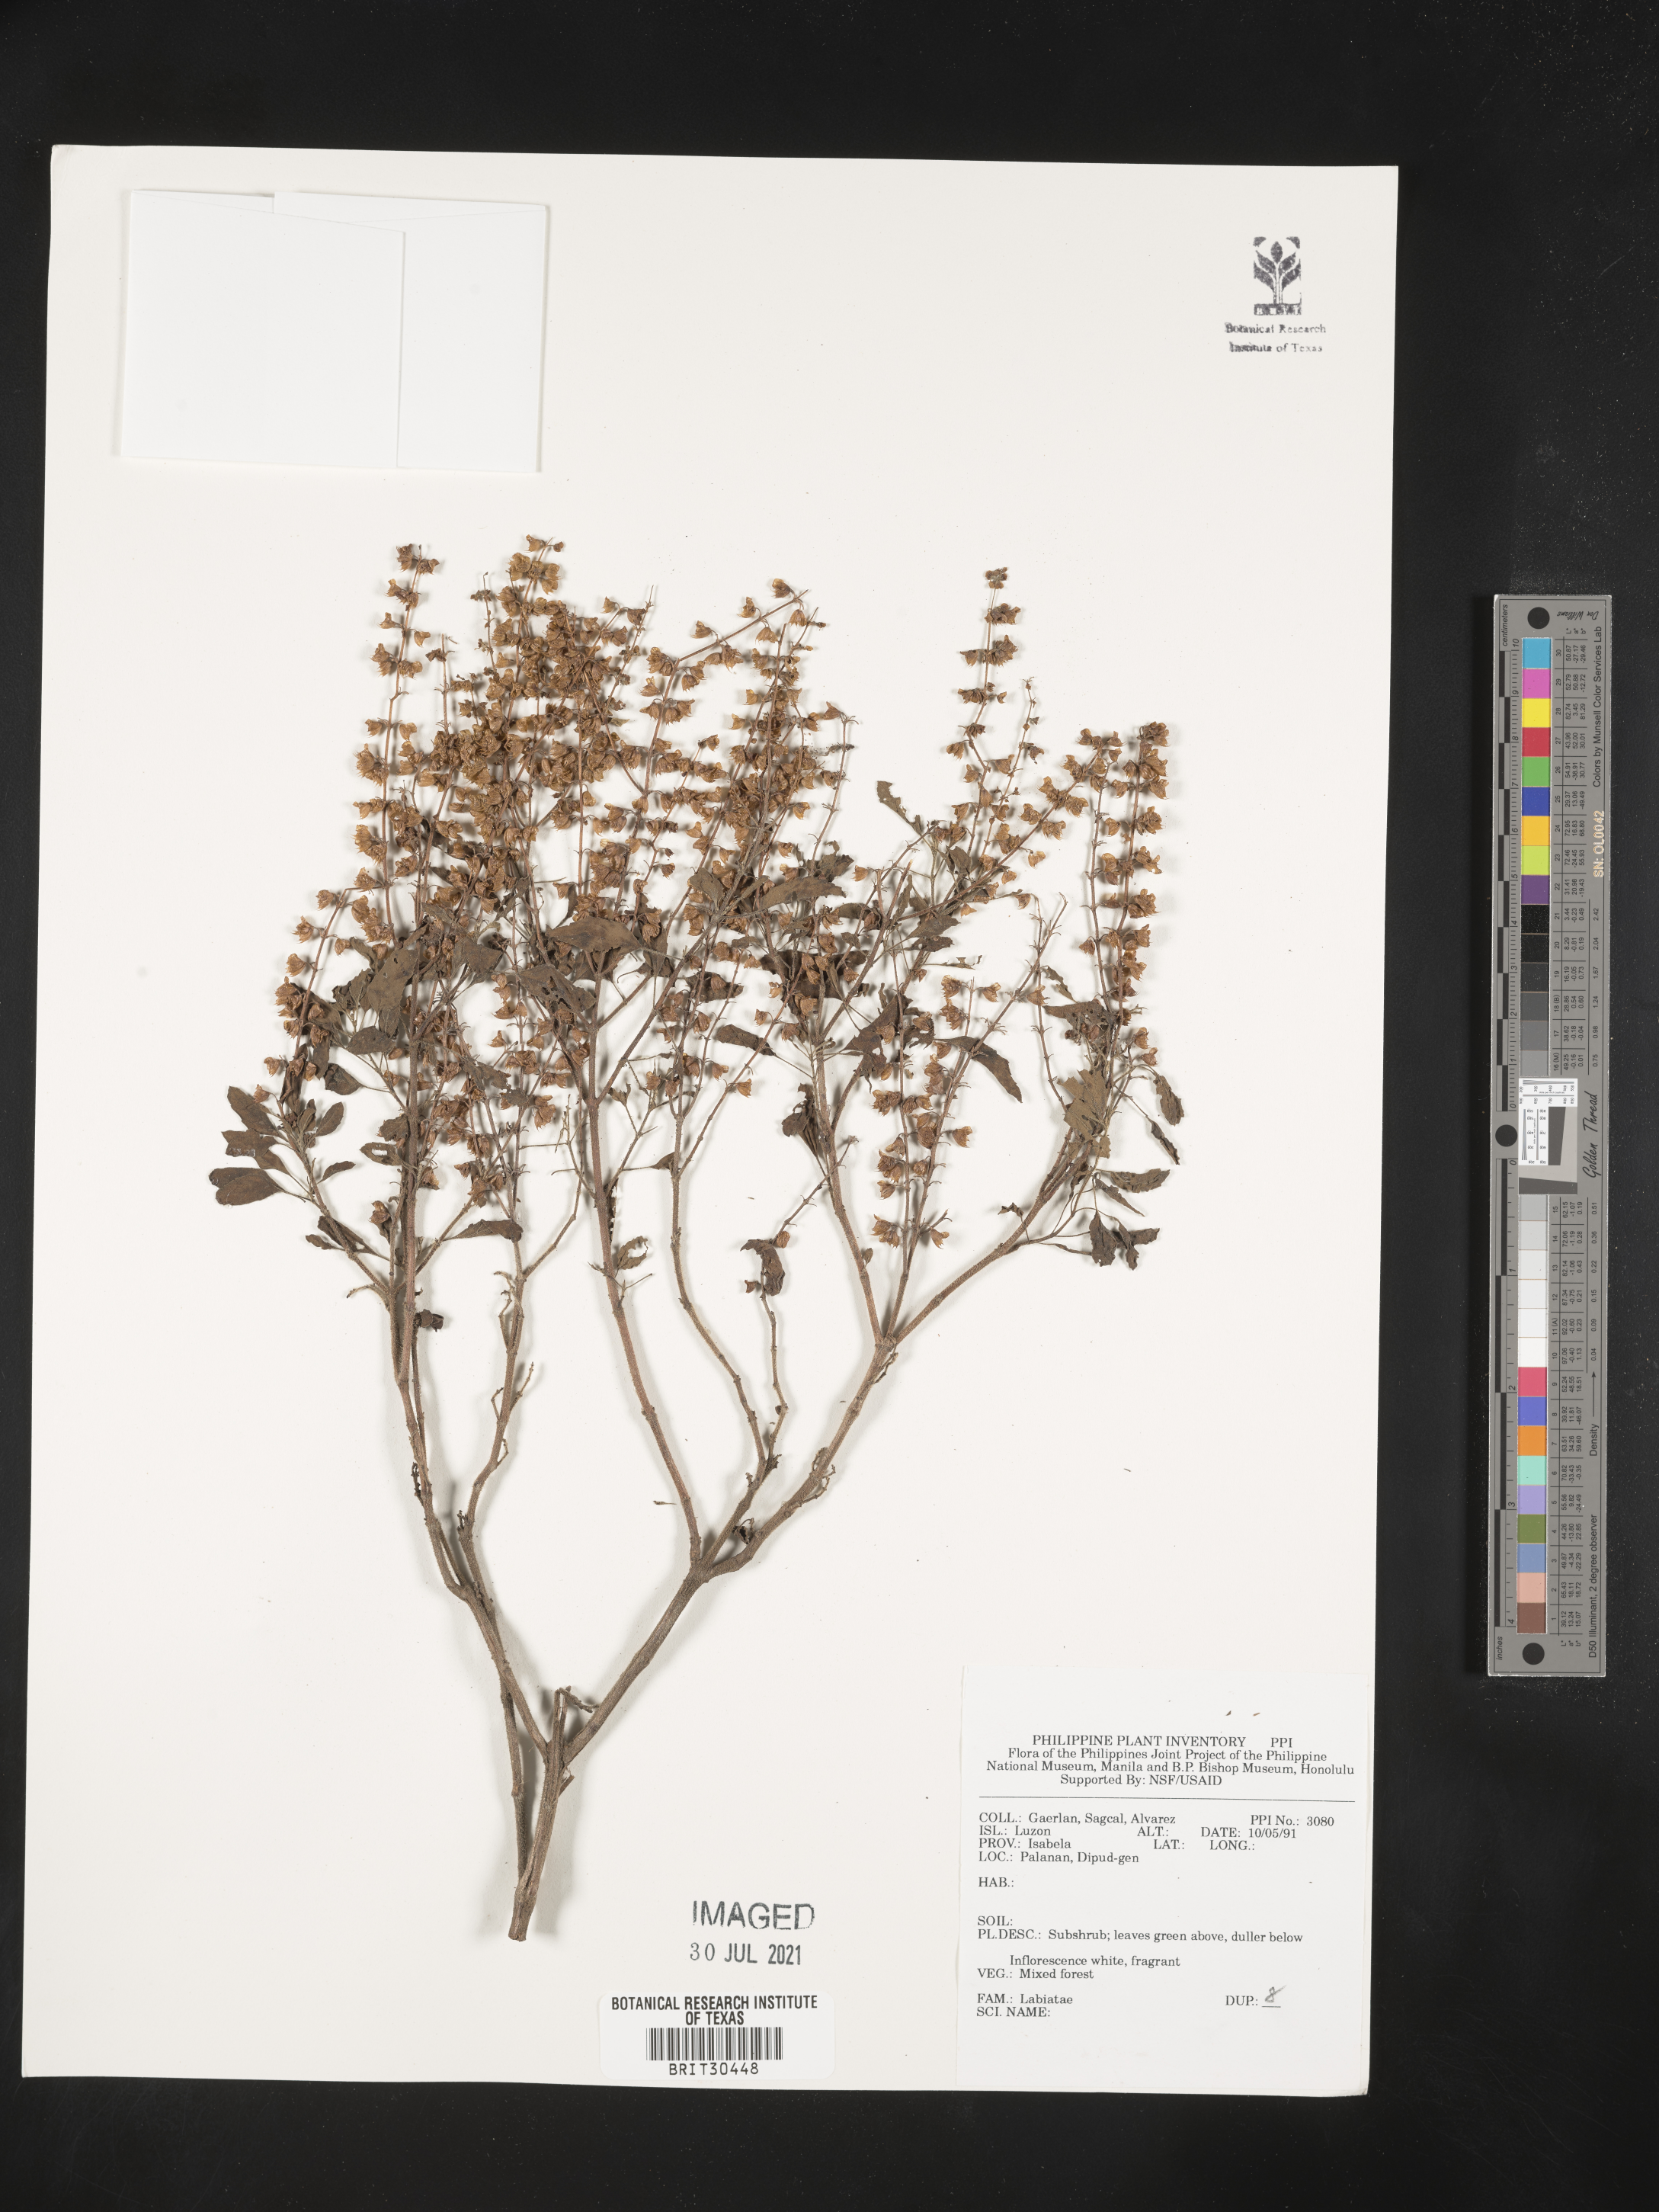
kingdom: Plantae
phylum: Tracheophyta
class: Magnoliopsida
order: Lamiales
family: Lamiaceae
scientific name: Lamiaceae
